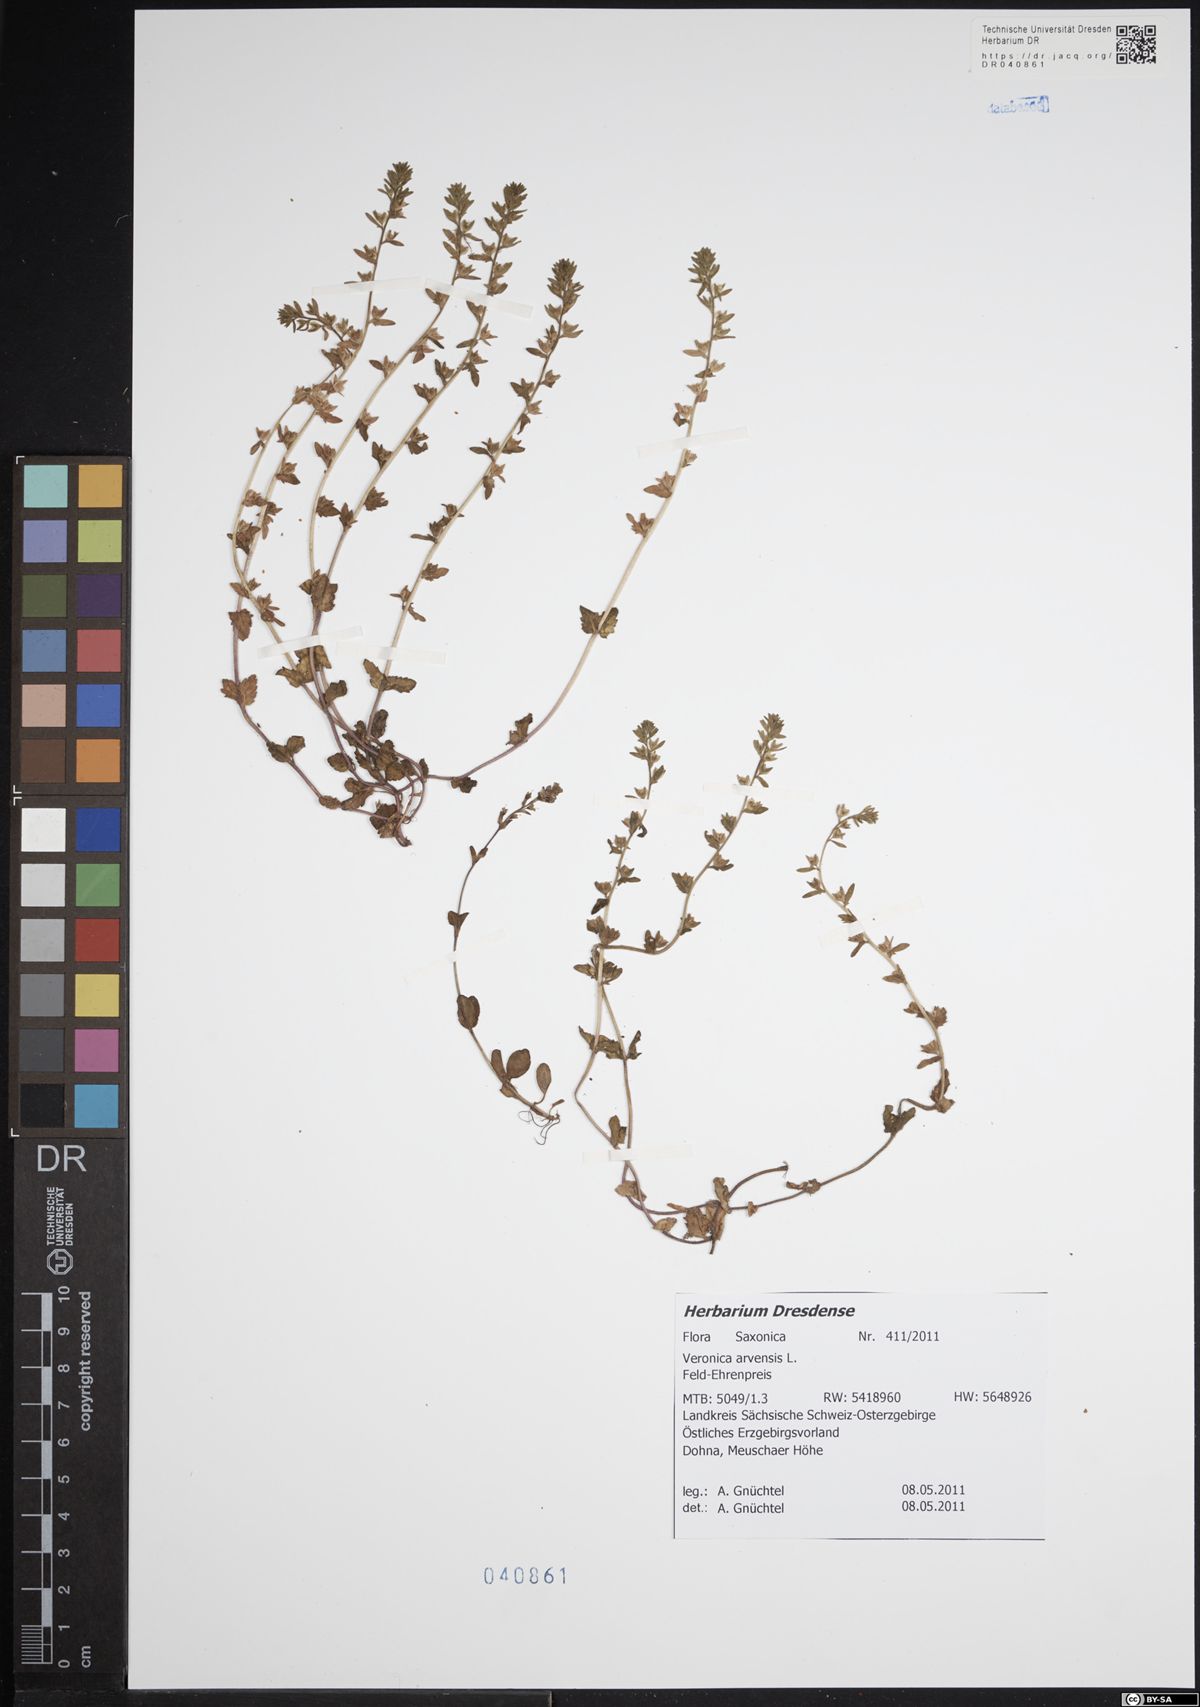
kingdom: Plantae
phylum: Tracheophyta
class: Magnoliopsida
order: Lamiales
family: Plantaginaceae
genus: Veronica
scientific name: Veronica arvensis
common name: Corn speedwell
